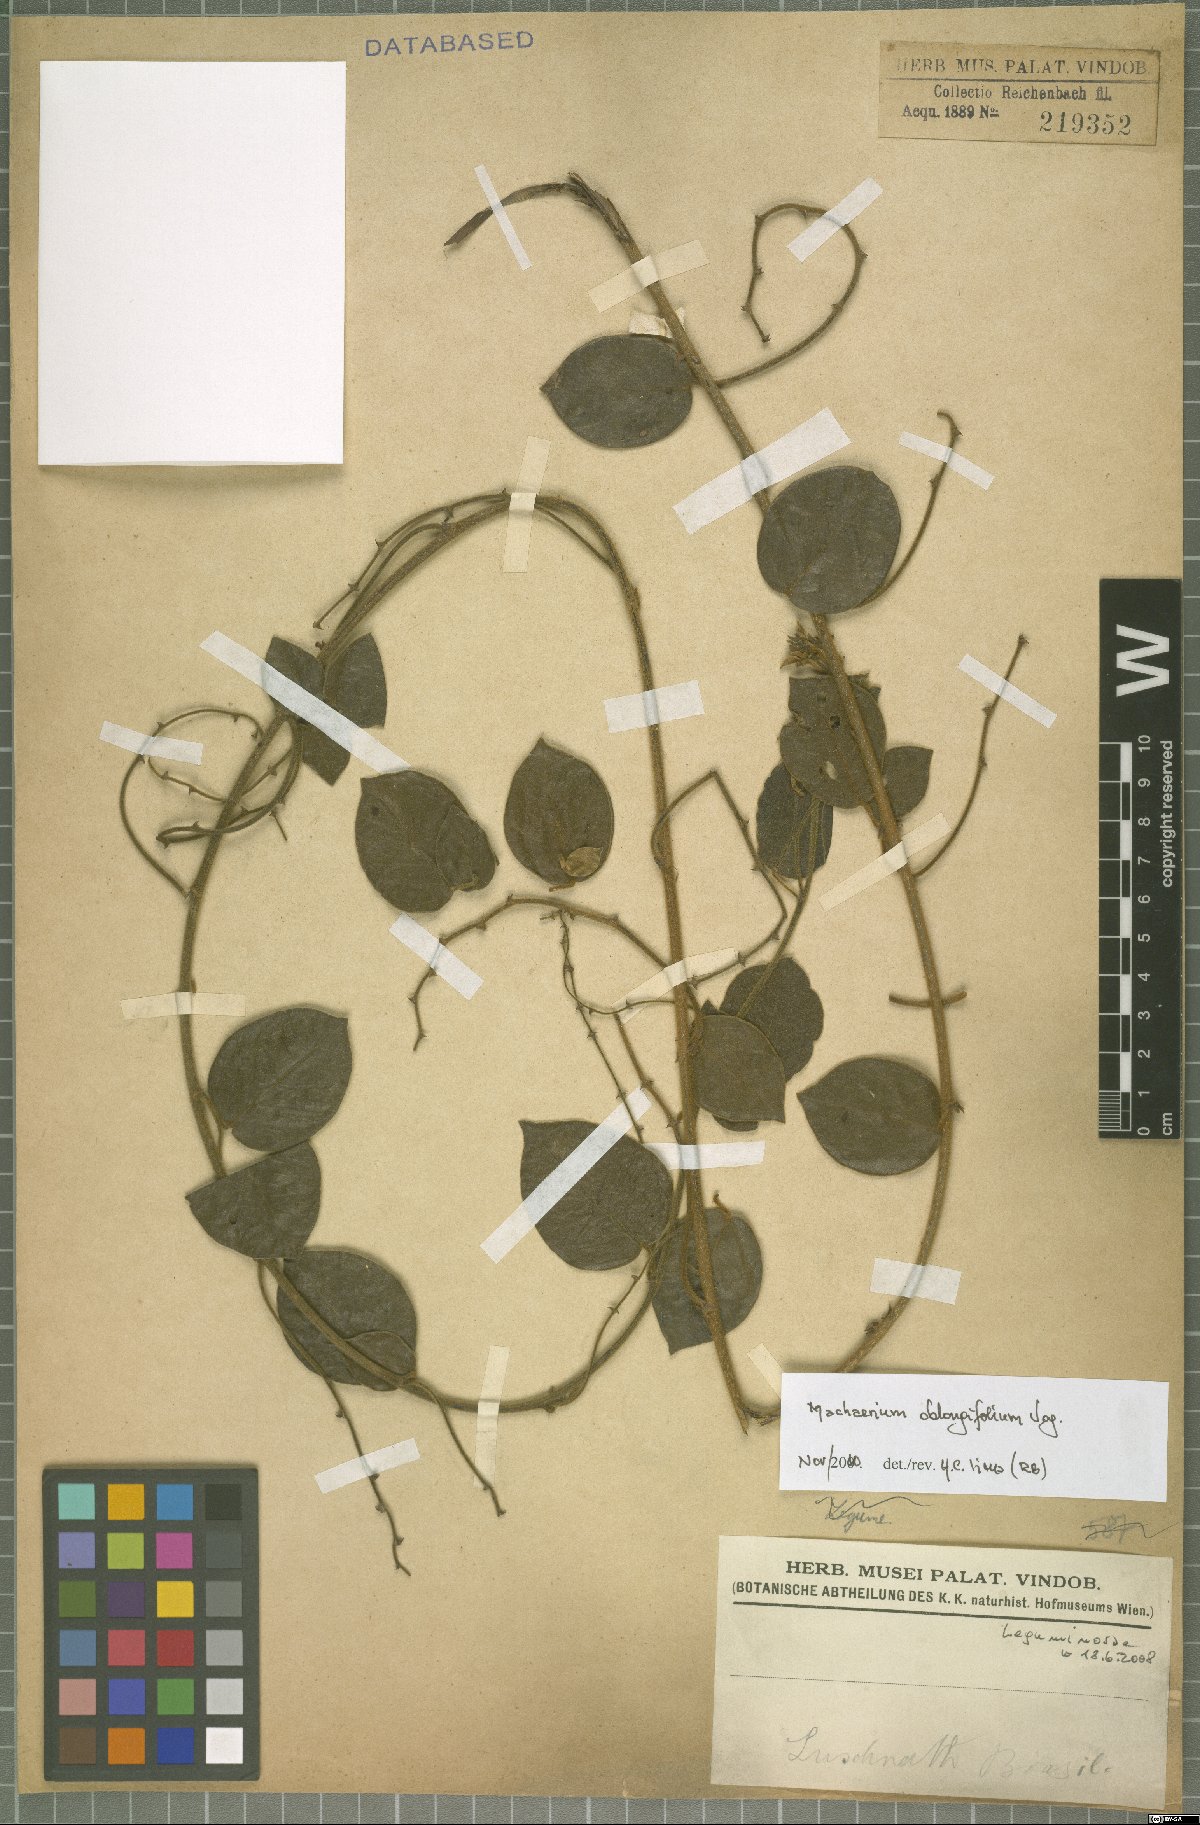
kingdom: Plantae
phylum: Tracheophyta
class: Magnoliopsida
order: Fabales
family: Fabaceae
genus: Machaerium
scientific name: Machaerium oblongifolium
